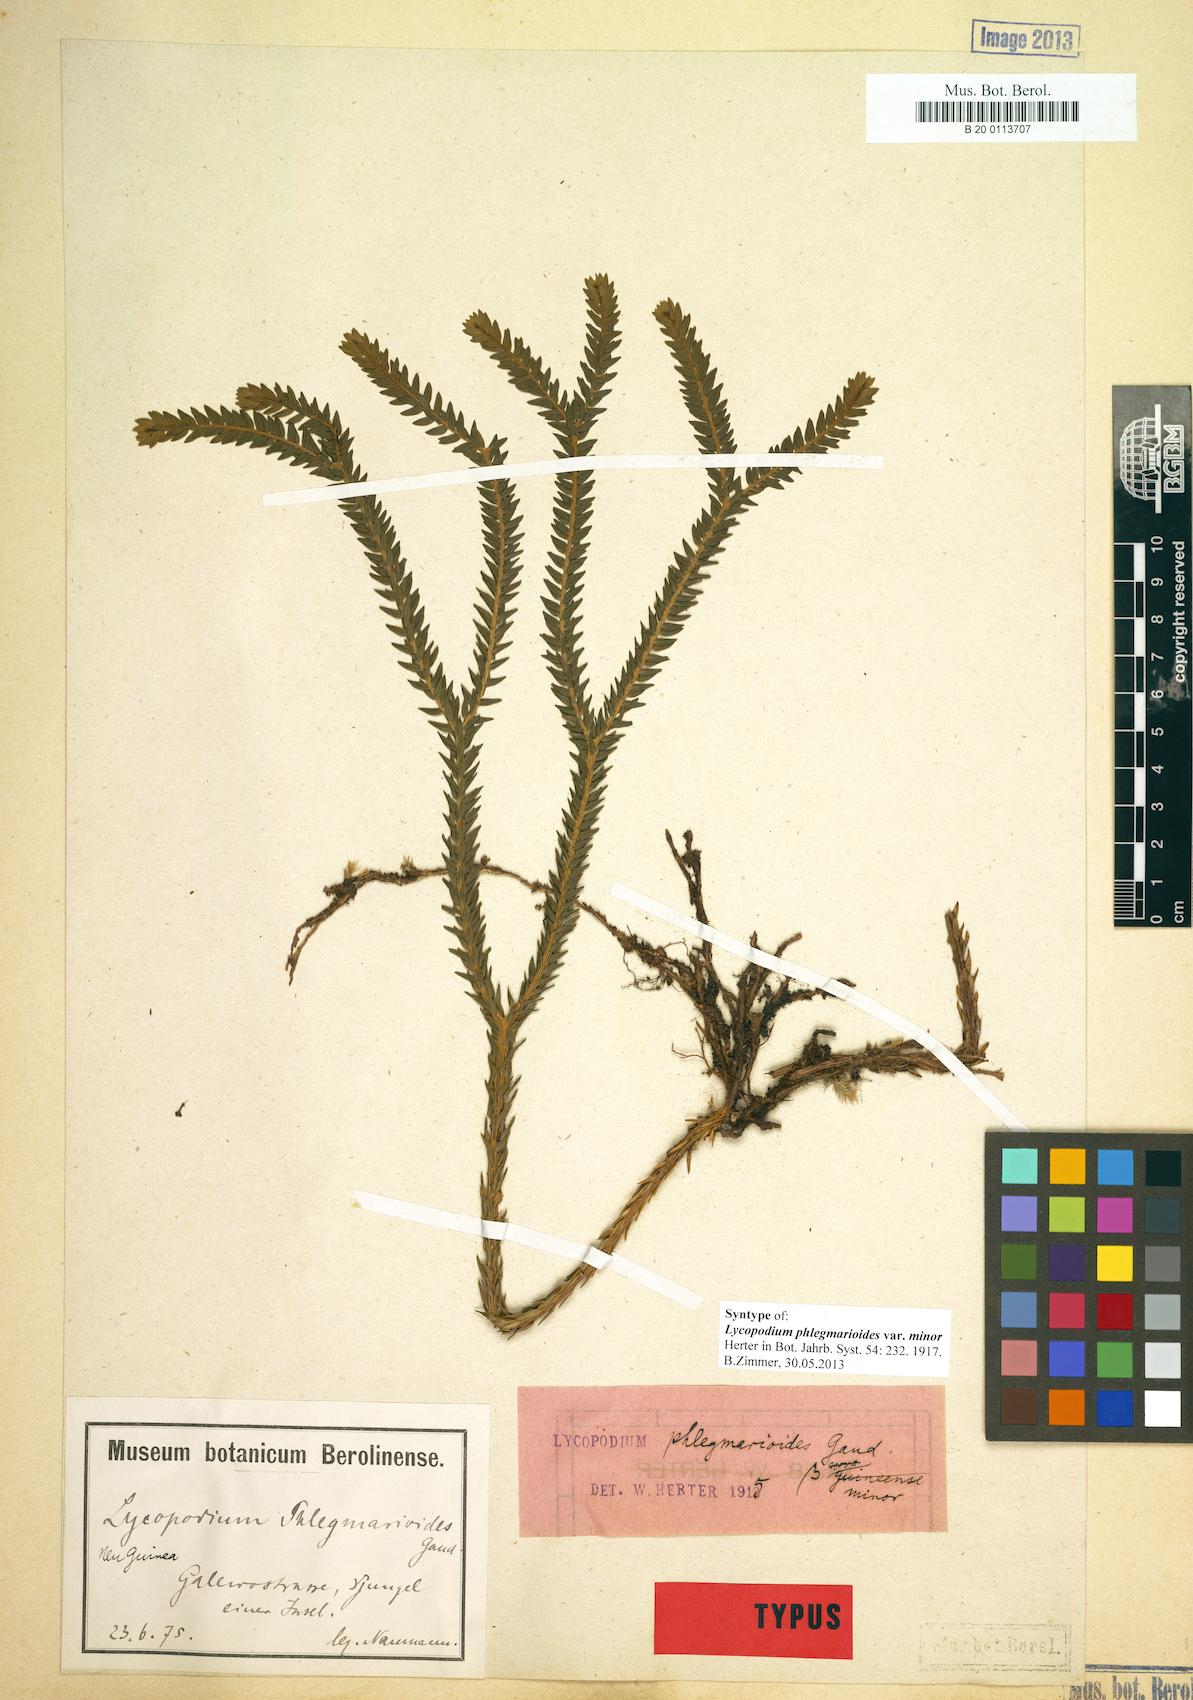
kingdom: Plantae
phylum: Tracheophyta
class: Lycopodiopsida
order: Lycopodiales
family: Lycopodiaceae
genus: Phlegmariurus
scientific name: Phlegmariurus phlegmarioides
